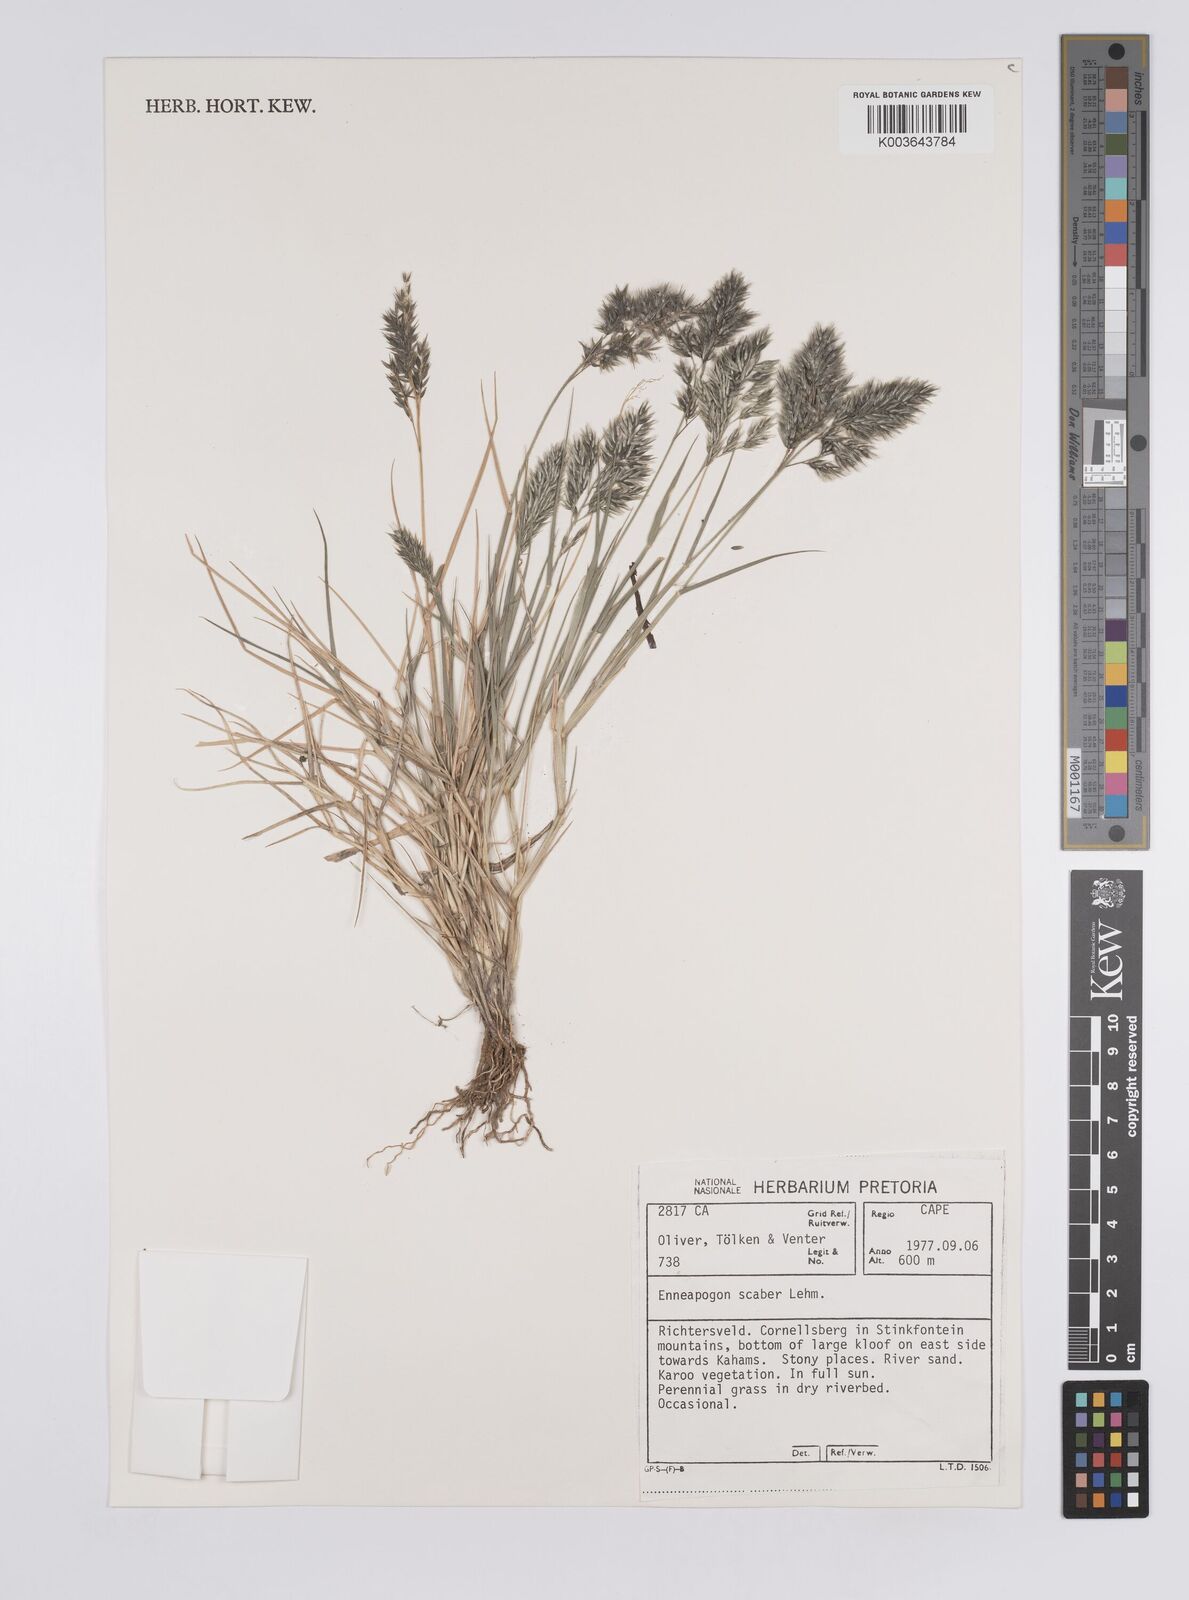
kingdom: Plantae
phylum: Tracheophyta
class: Liliopsida
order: Poales
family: Poaceae
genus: Enneapogon
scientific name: Enneapogon scaber
